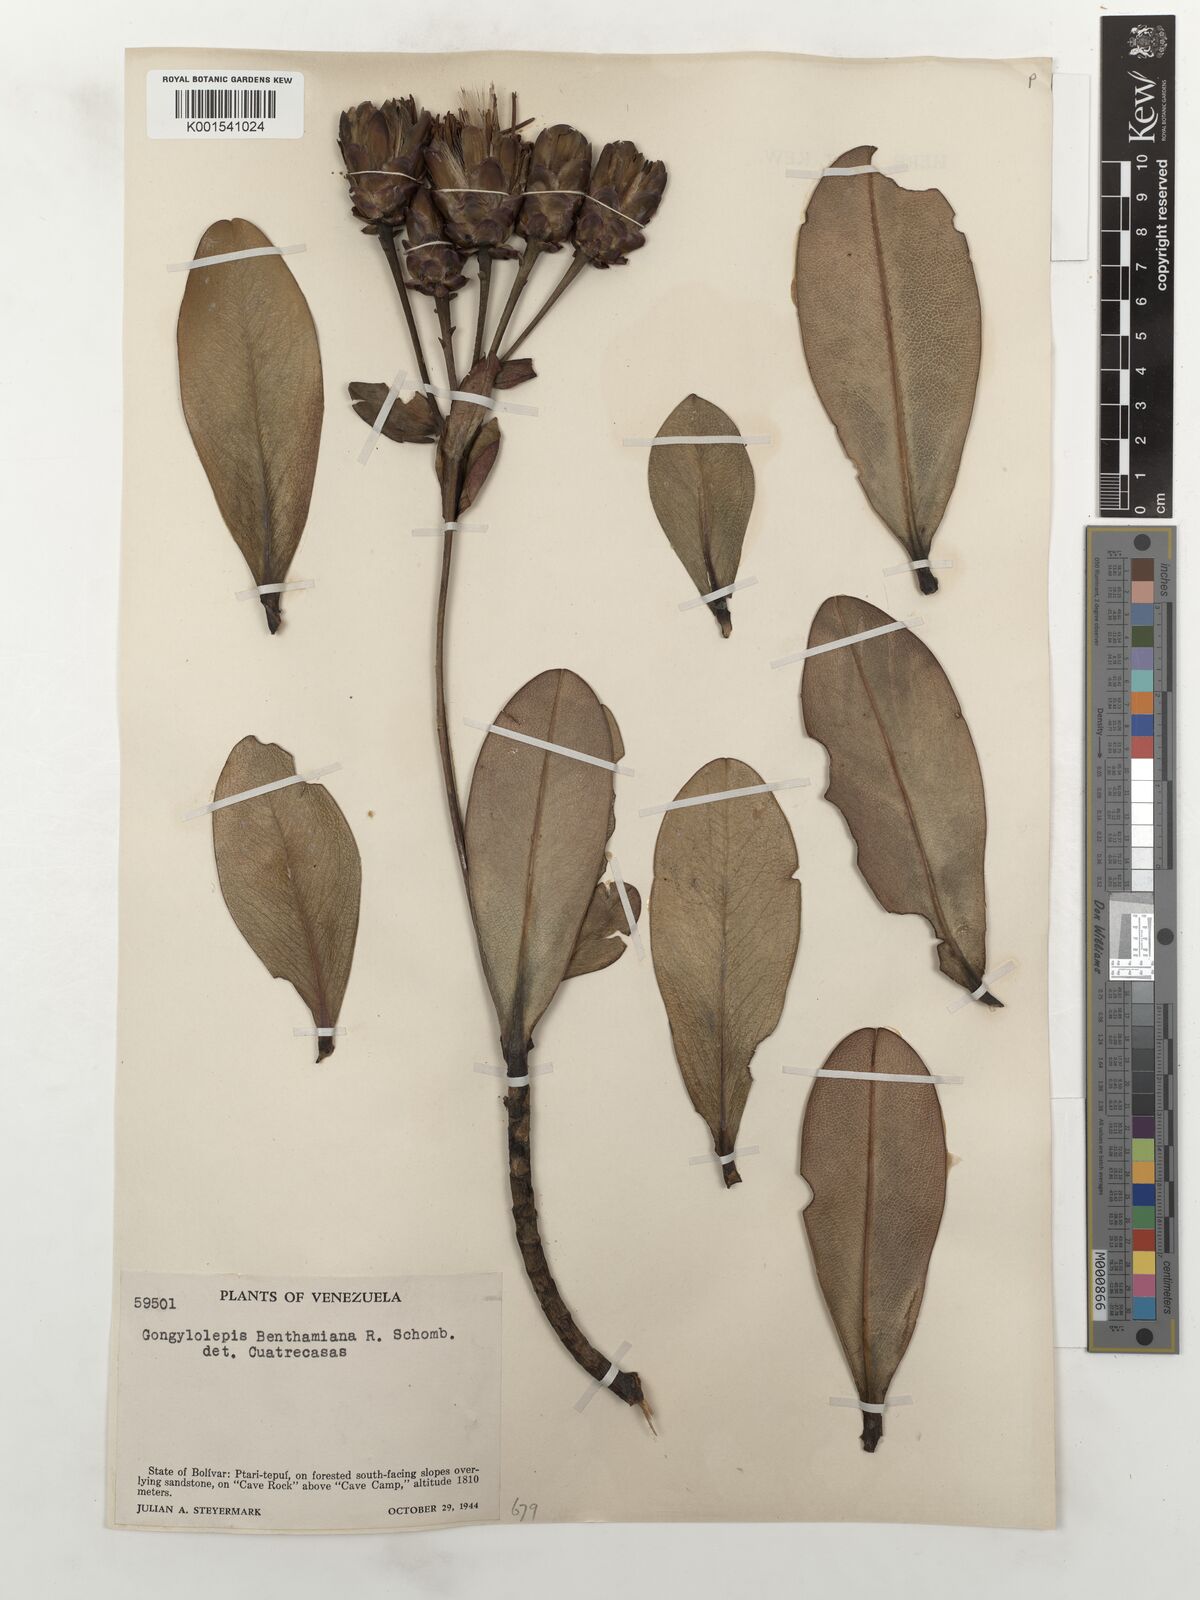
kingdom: Plantae
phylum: Tracheophyta
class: Magnoliopsida
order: Asterales
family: Asteraceae
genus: Gongylolepis
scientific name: Gongylolepis benthamiana
